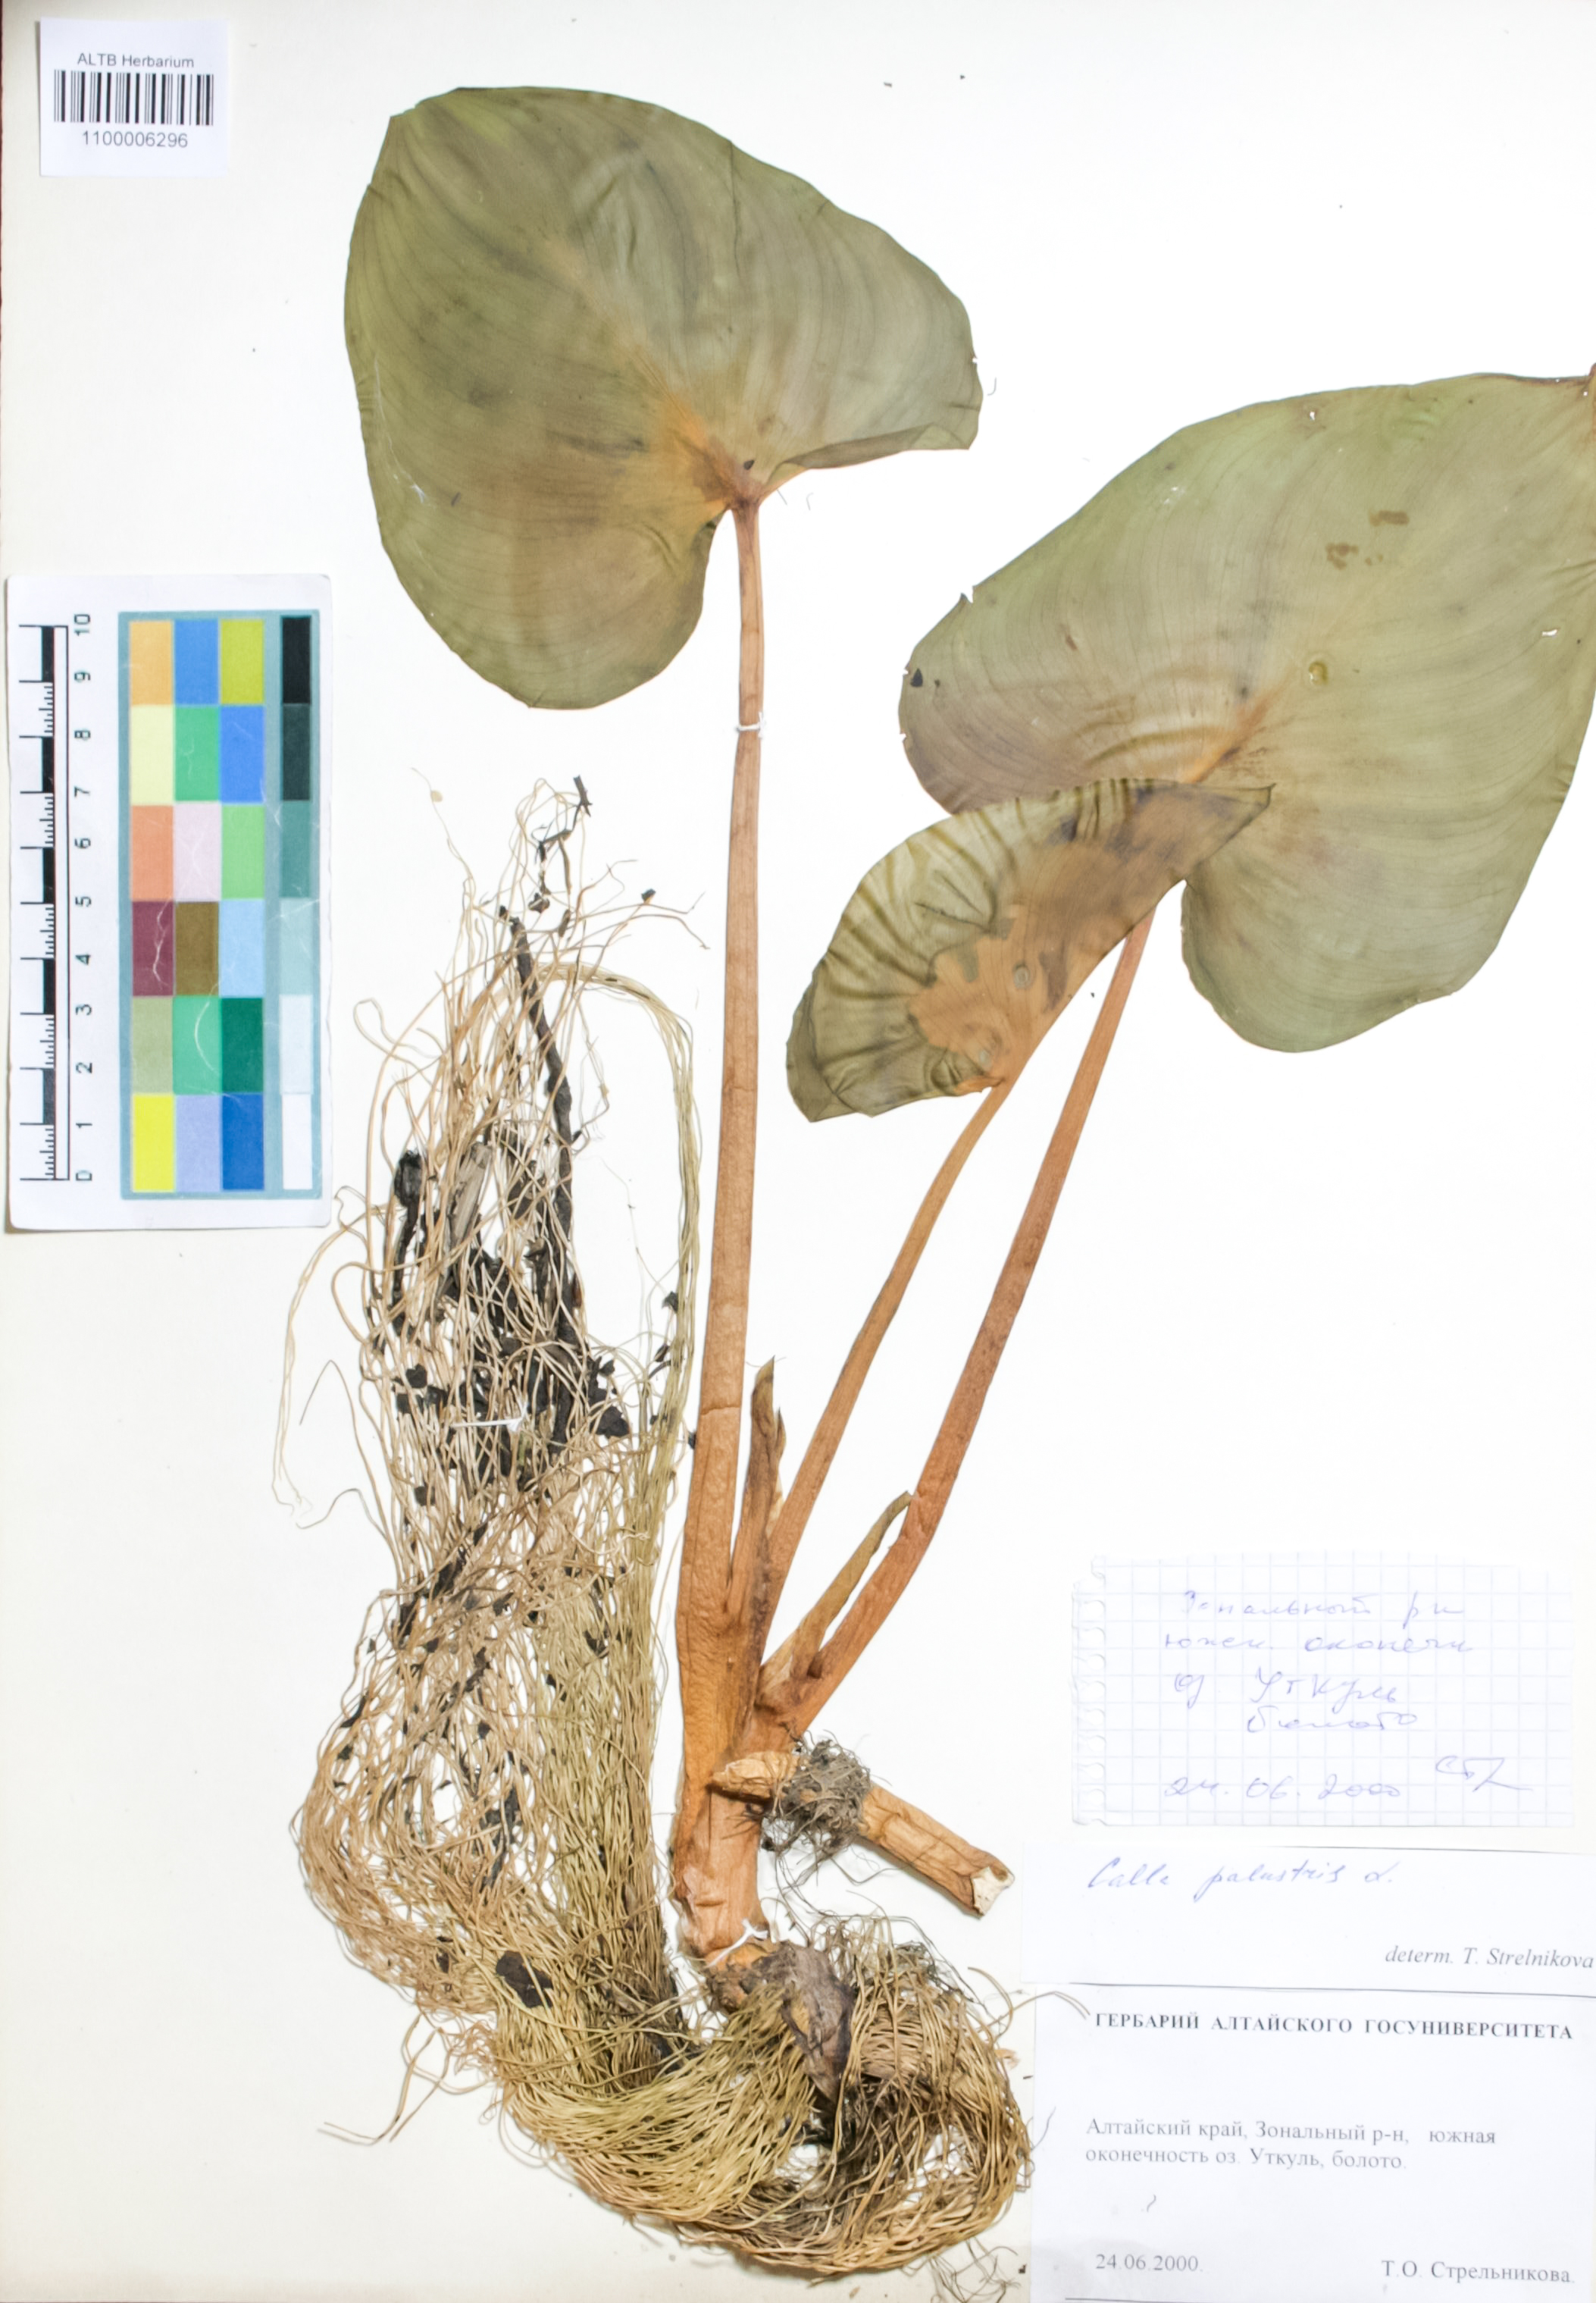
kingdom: Plantae
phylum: Tracheophyta
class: Liliopsida
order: Alismatales
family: Araceae
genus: Calla
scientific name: Calla palustris
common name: Bog arum
